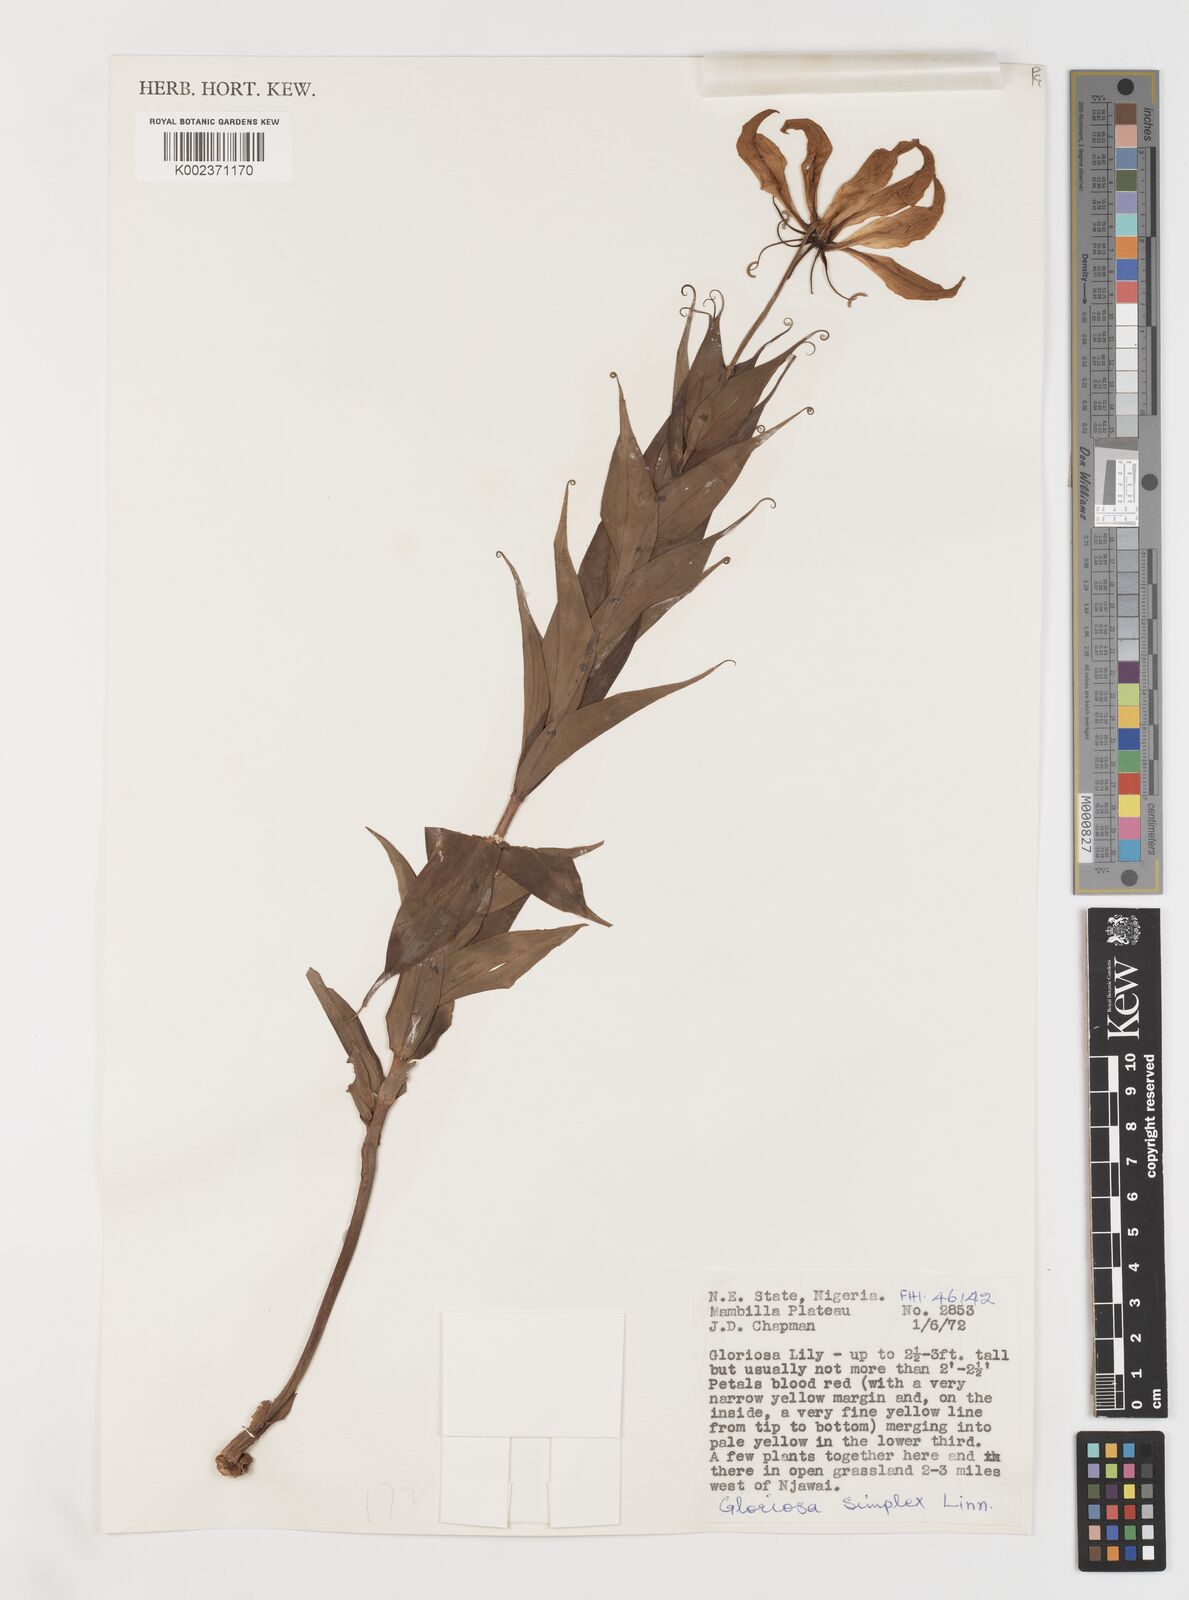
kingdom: Plantae
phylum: Tracheophyta
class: Liliopsida
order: Liliales
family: Colchicaceae
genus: Gloriosa
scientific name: Gloriosa simplex
